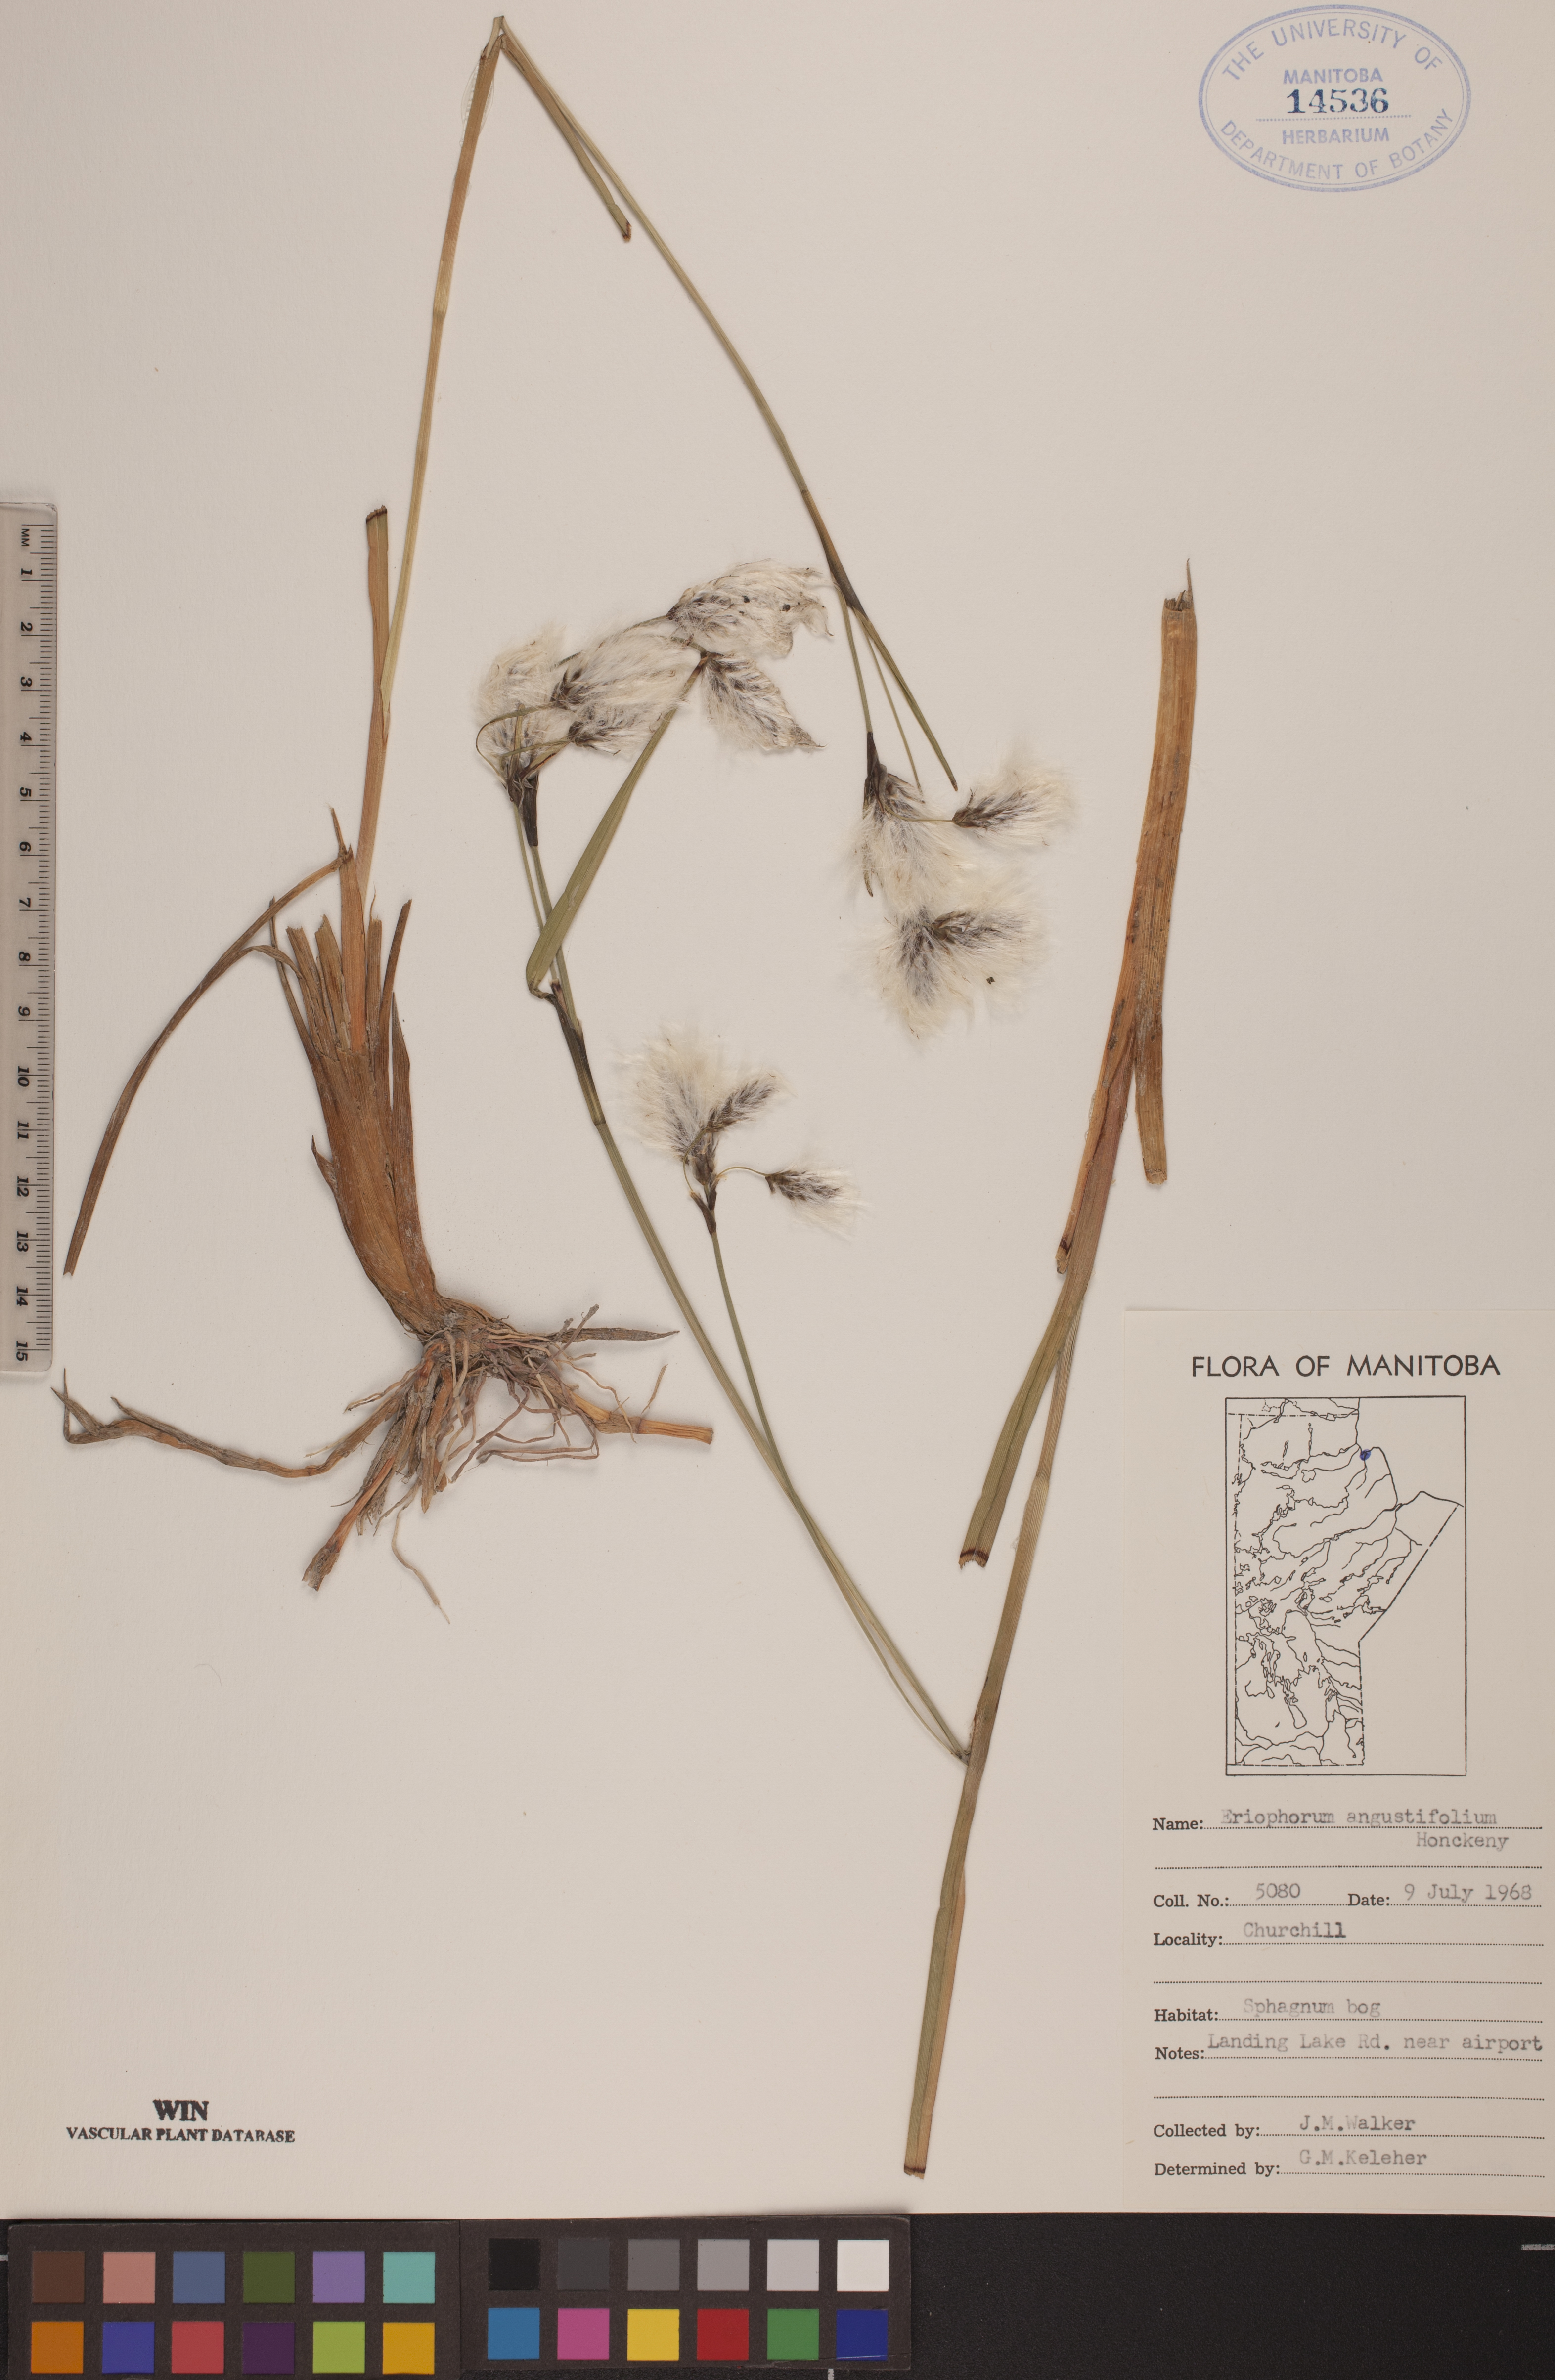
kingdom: Plantae
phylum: Tracheophyta
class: Liliopsida
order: Poales
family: Cyperaceae
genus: Eriophorum
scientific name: Eriophorum angustifolium
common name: Common cottongrass
